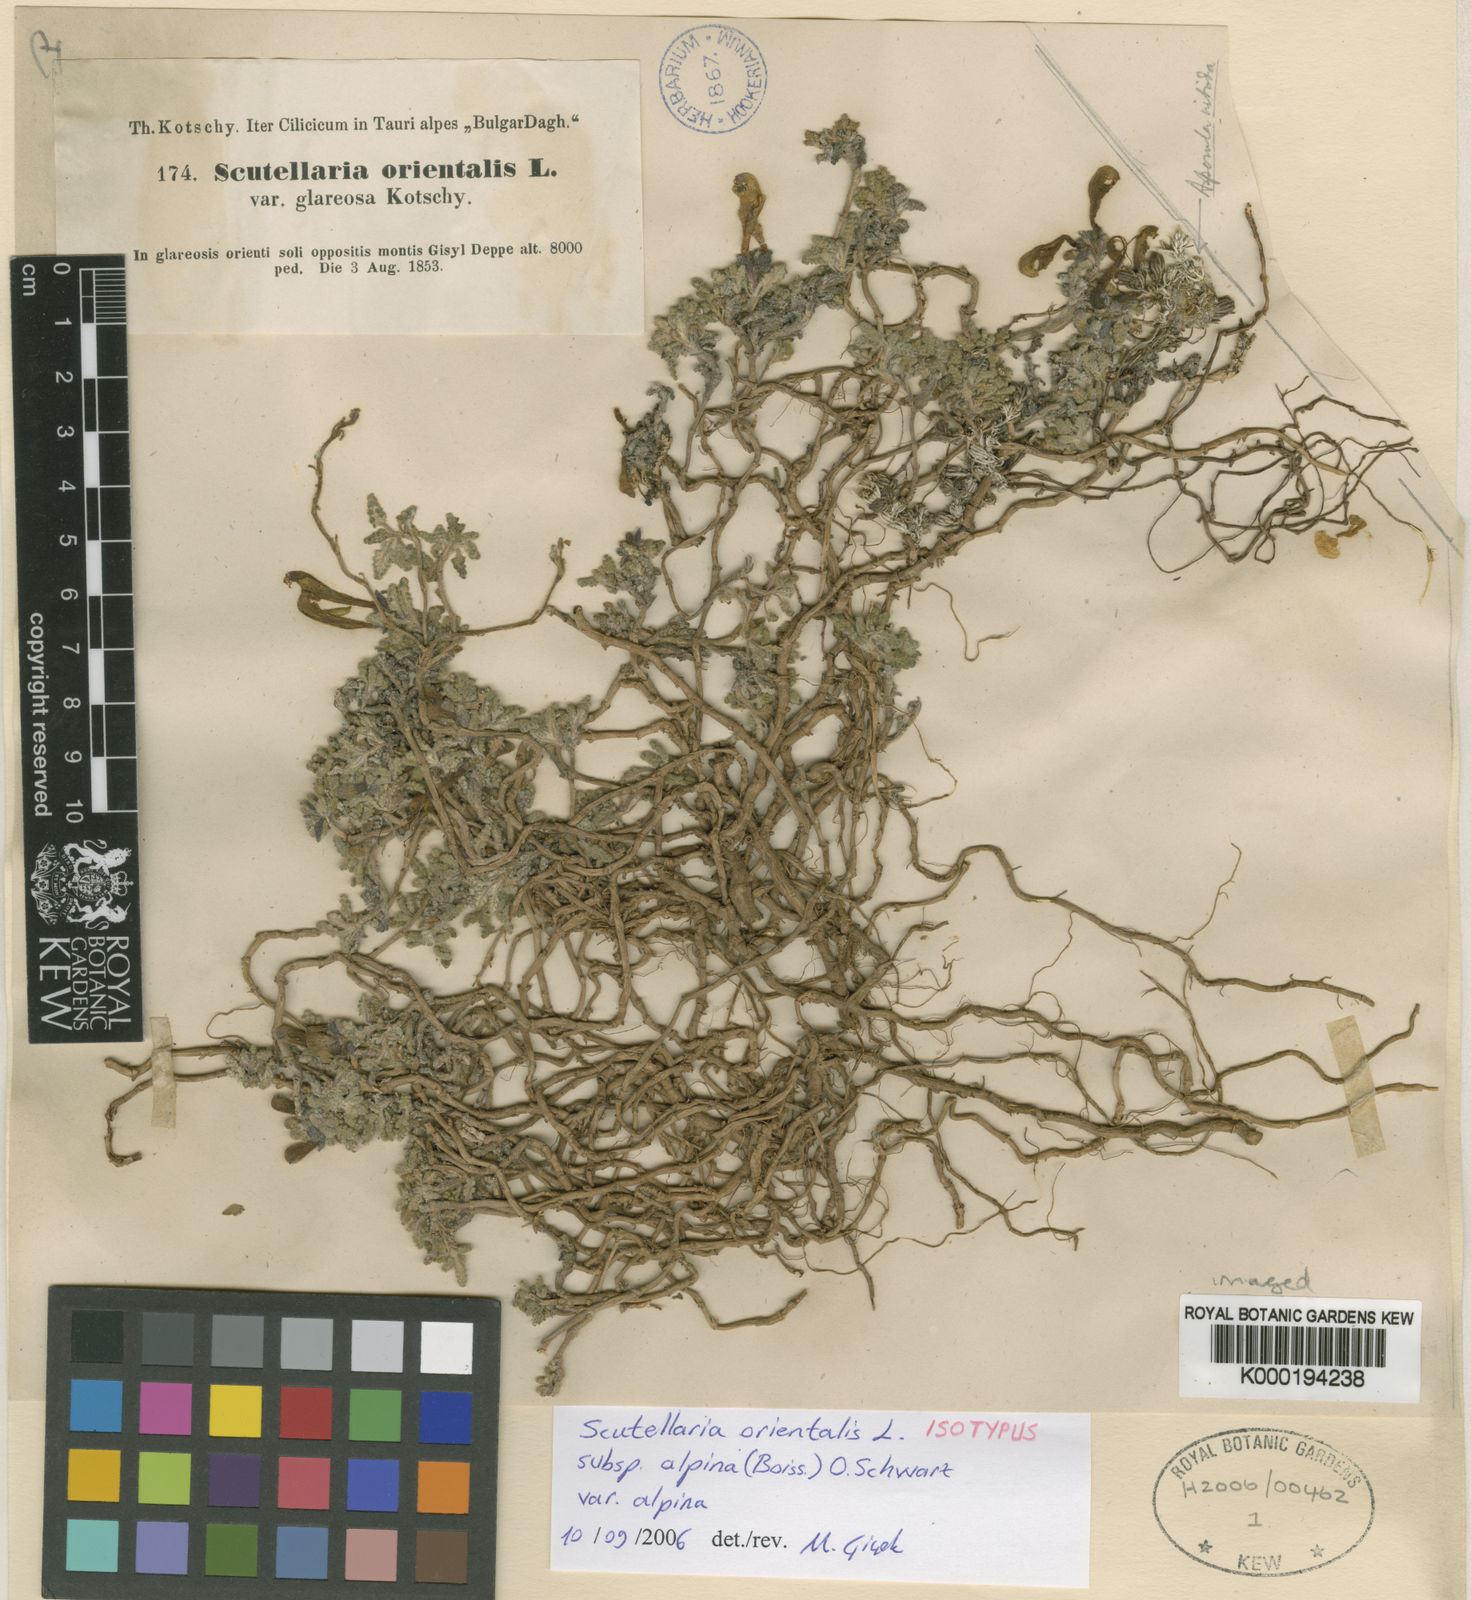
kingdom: Plantae
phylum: Tracheophyta
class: Magnoliopsida
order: Lamiales
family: Lamiaceae
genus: Scutellaria
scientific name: Scutellaria orientalis
